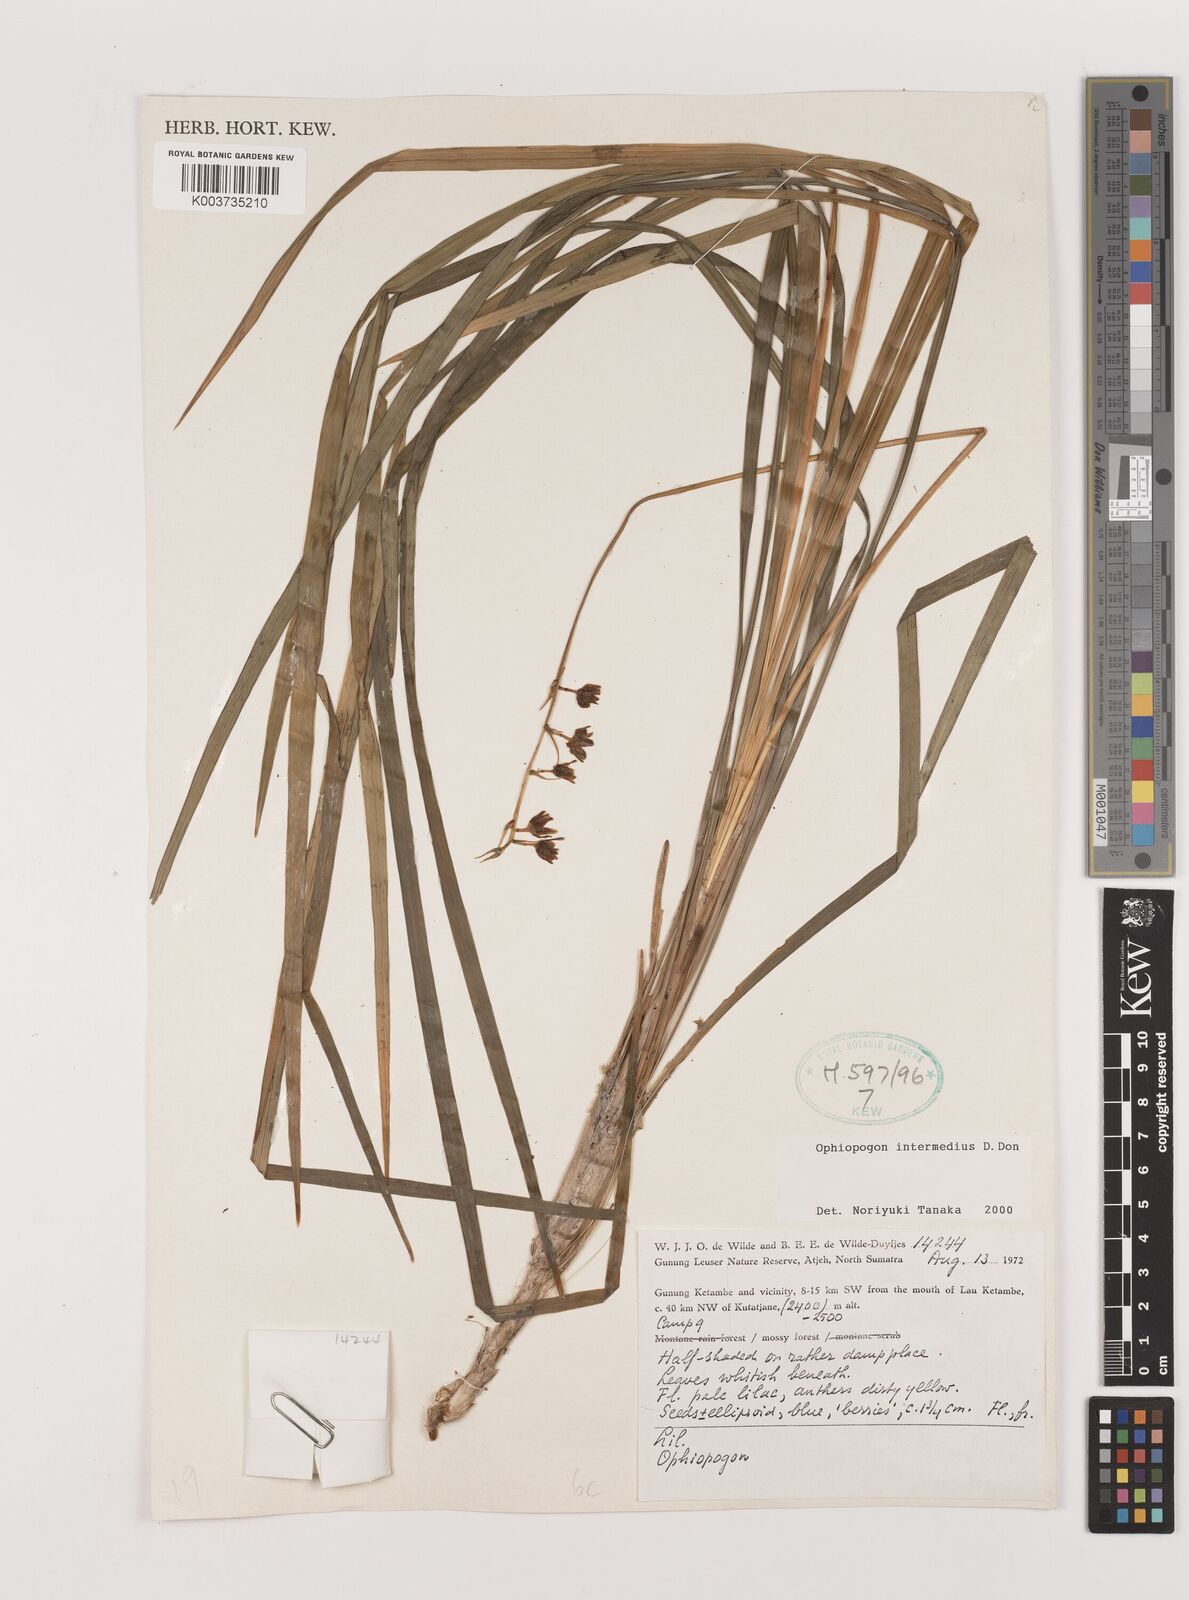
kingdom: Plantae
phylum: Tracheophyta
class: Liliopsida
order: Asparagales
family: Asparagaceae
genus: Ophiopogon
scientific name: Ophiopogon intermedius
